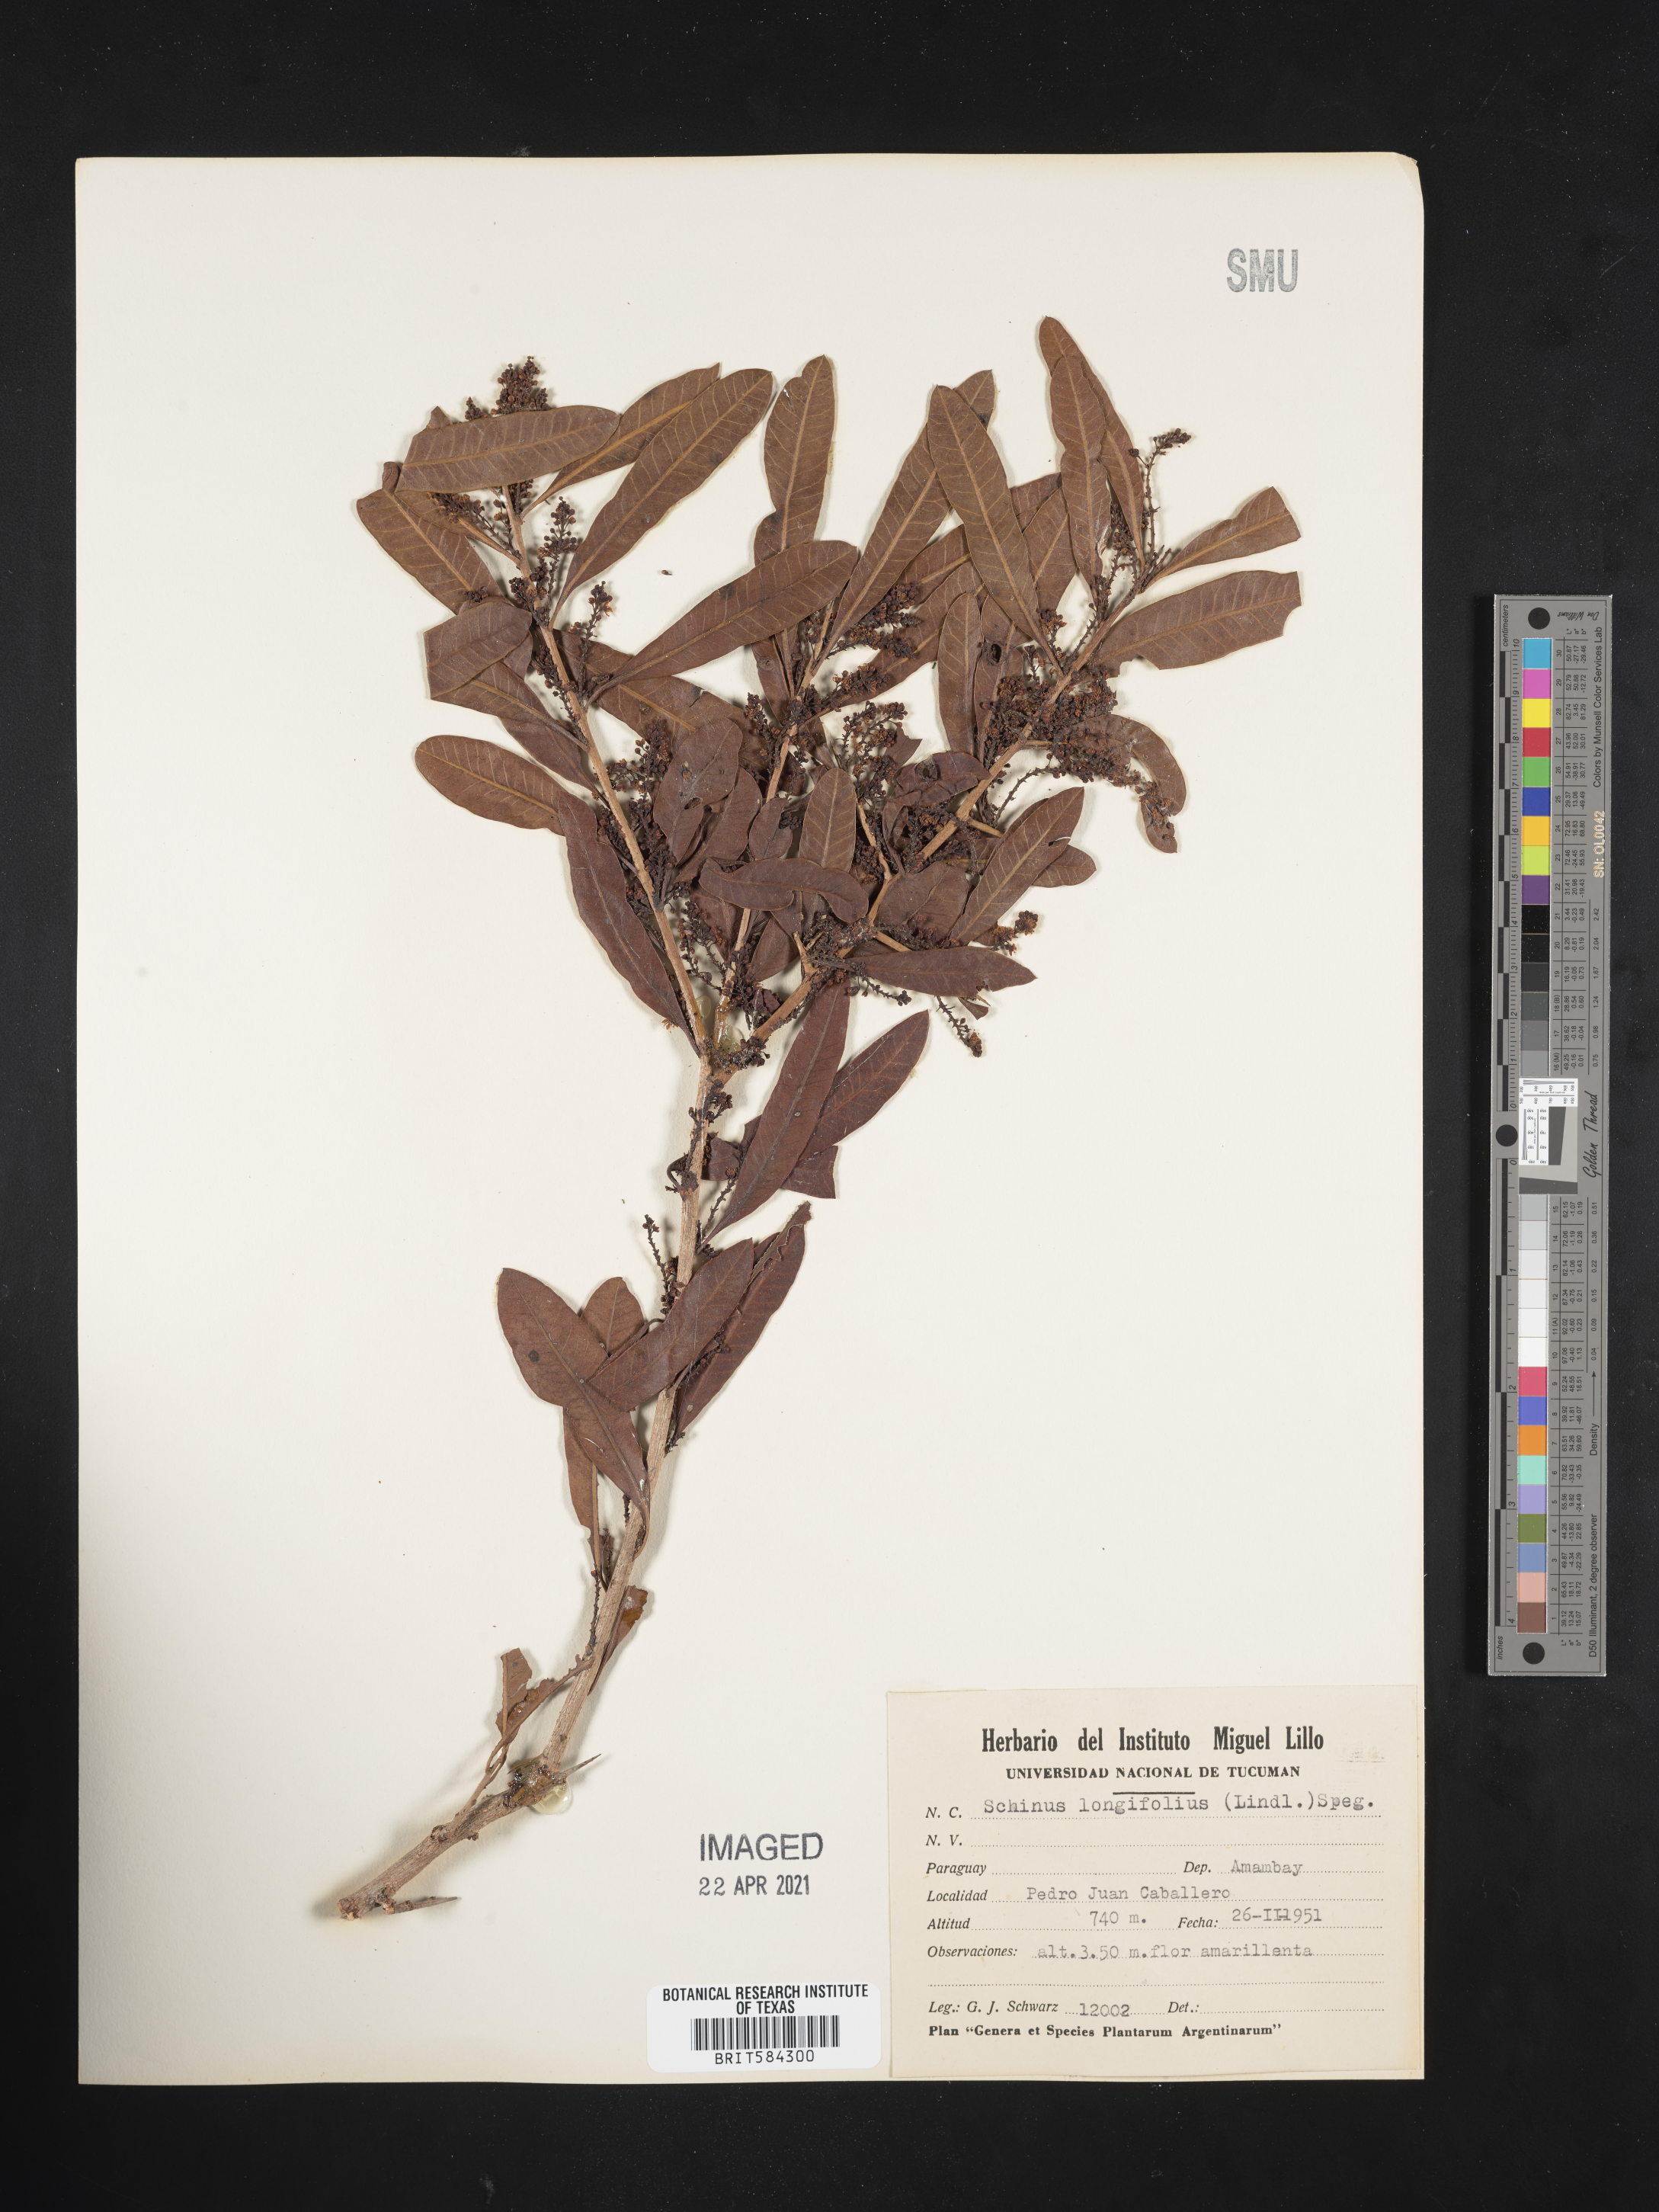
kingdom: Plantae
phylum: Tracheophyta
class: Magnoliopsida
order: Sapindales
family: Anacardiaceae
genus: Schinus
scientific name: Schinus longifolia
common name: Longleaf peppertree
